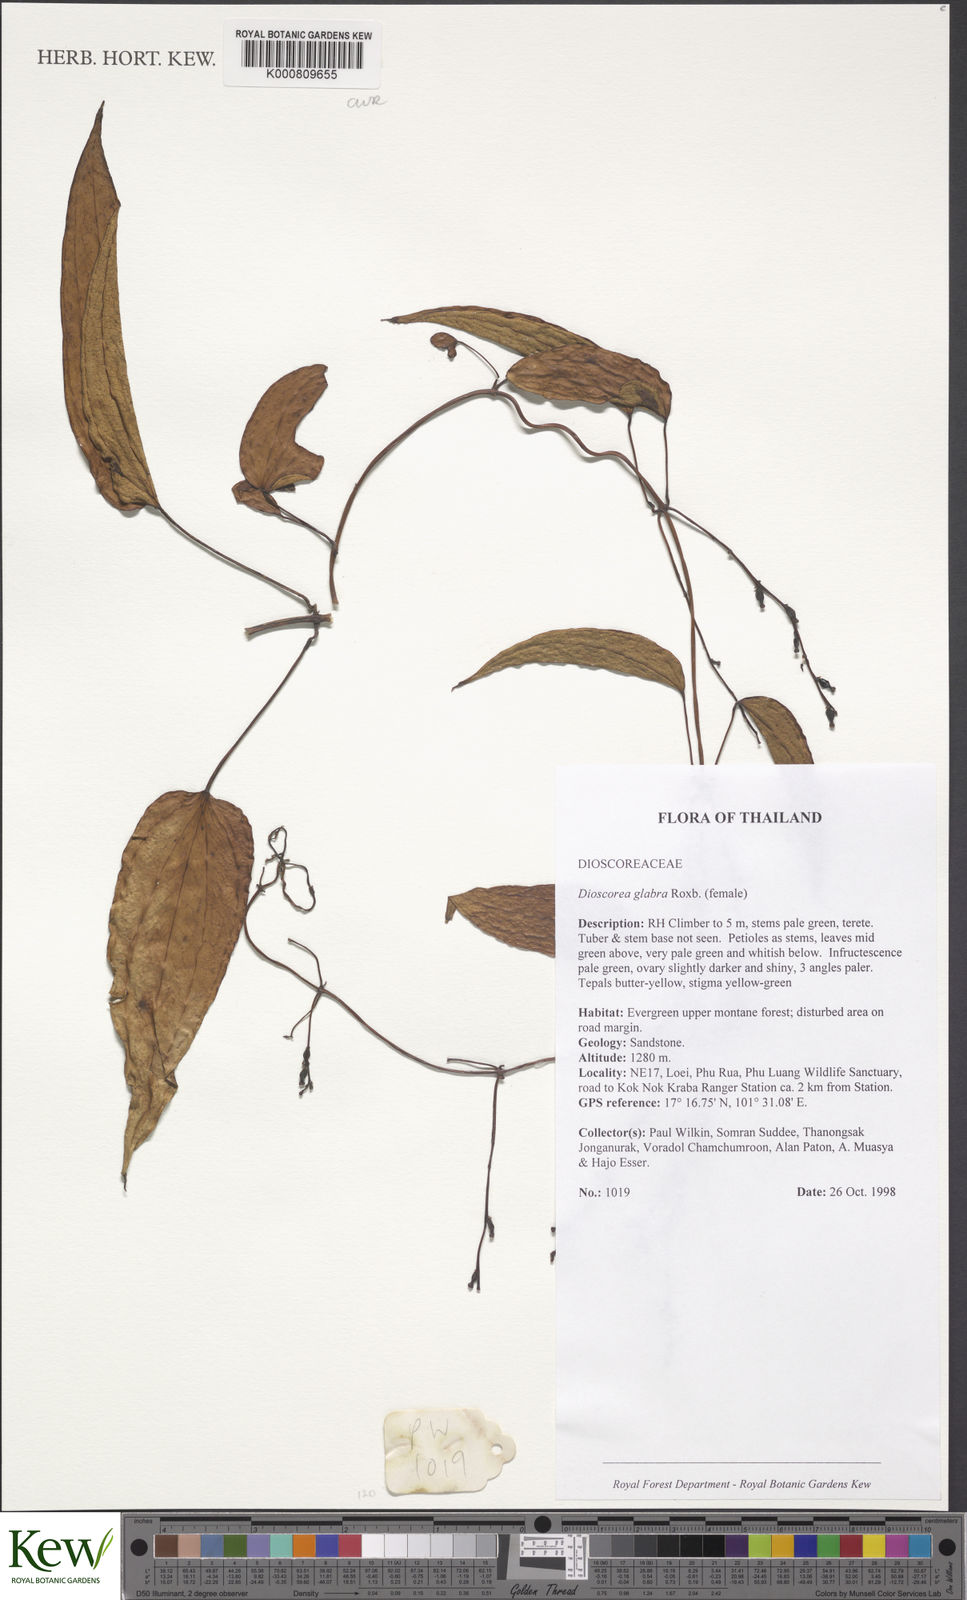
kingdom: Plantae
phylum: Tracheophyta
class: Liliopsida
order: Dioscoreales
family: Dioscoreaceae
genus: Dioscorea
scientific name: Dioscorea glabra
